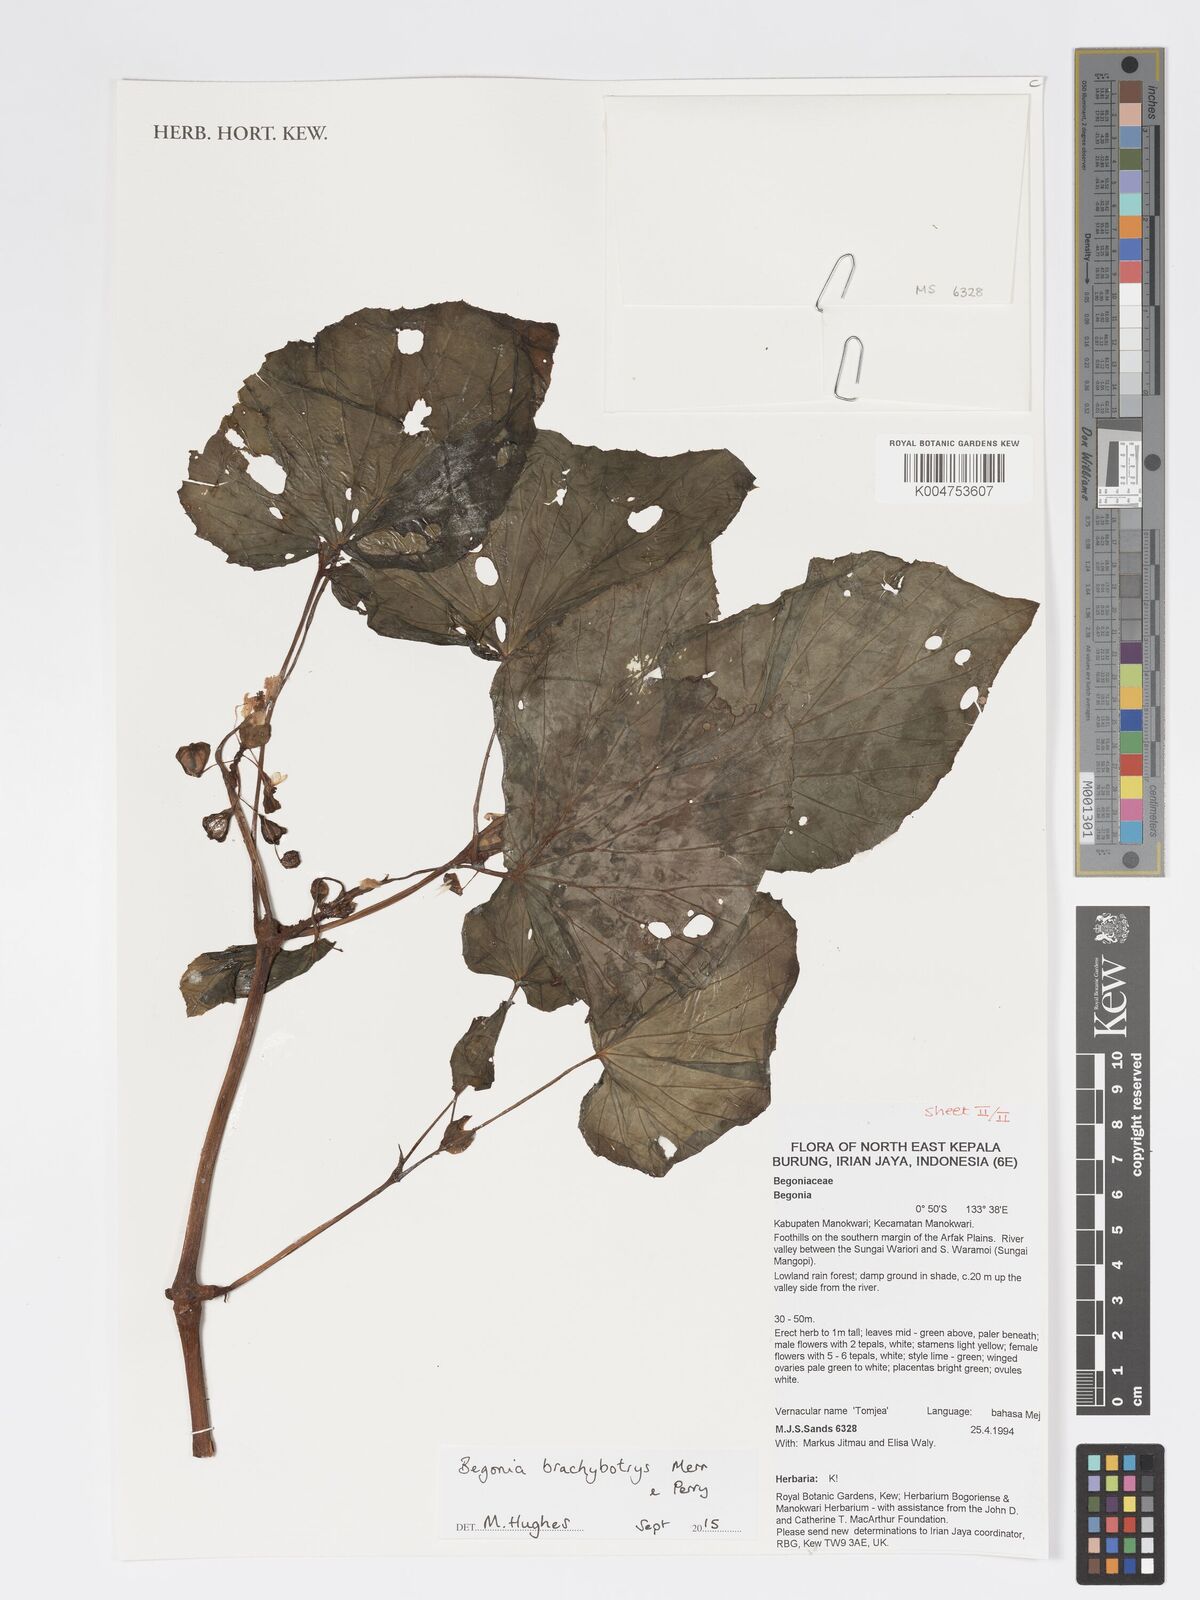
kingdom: Plantae
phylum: Tracheophyta
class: Magnoliopsida
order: Cucurbitales
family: Begoniaceae
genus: Begonia
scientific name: Begonia brachybotrys
